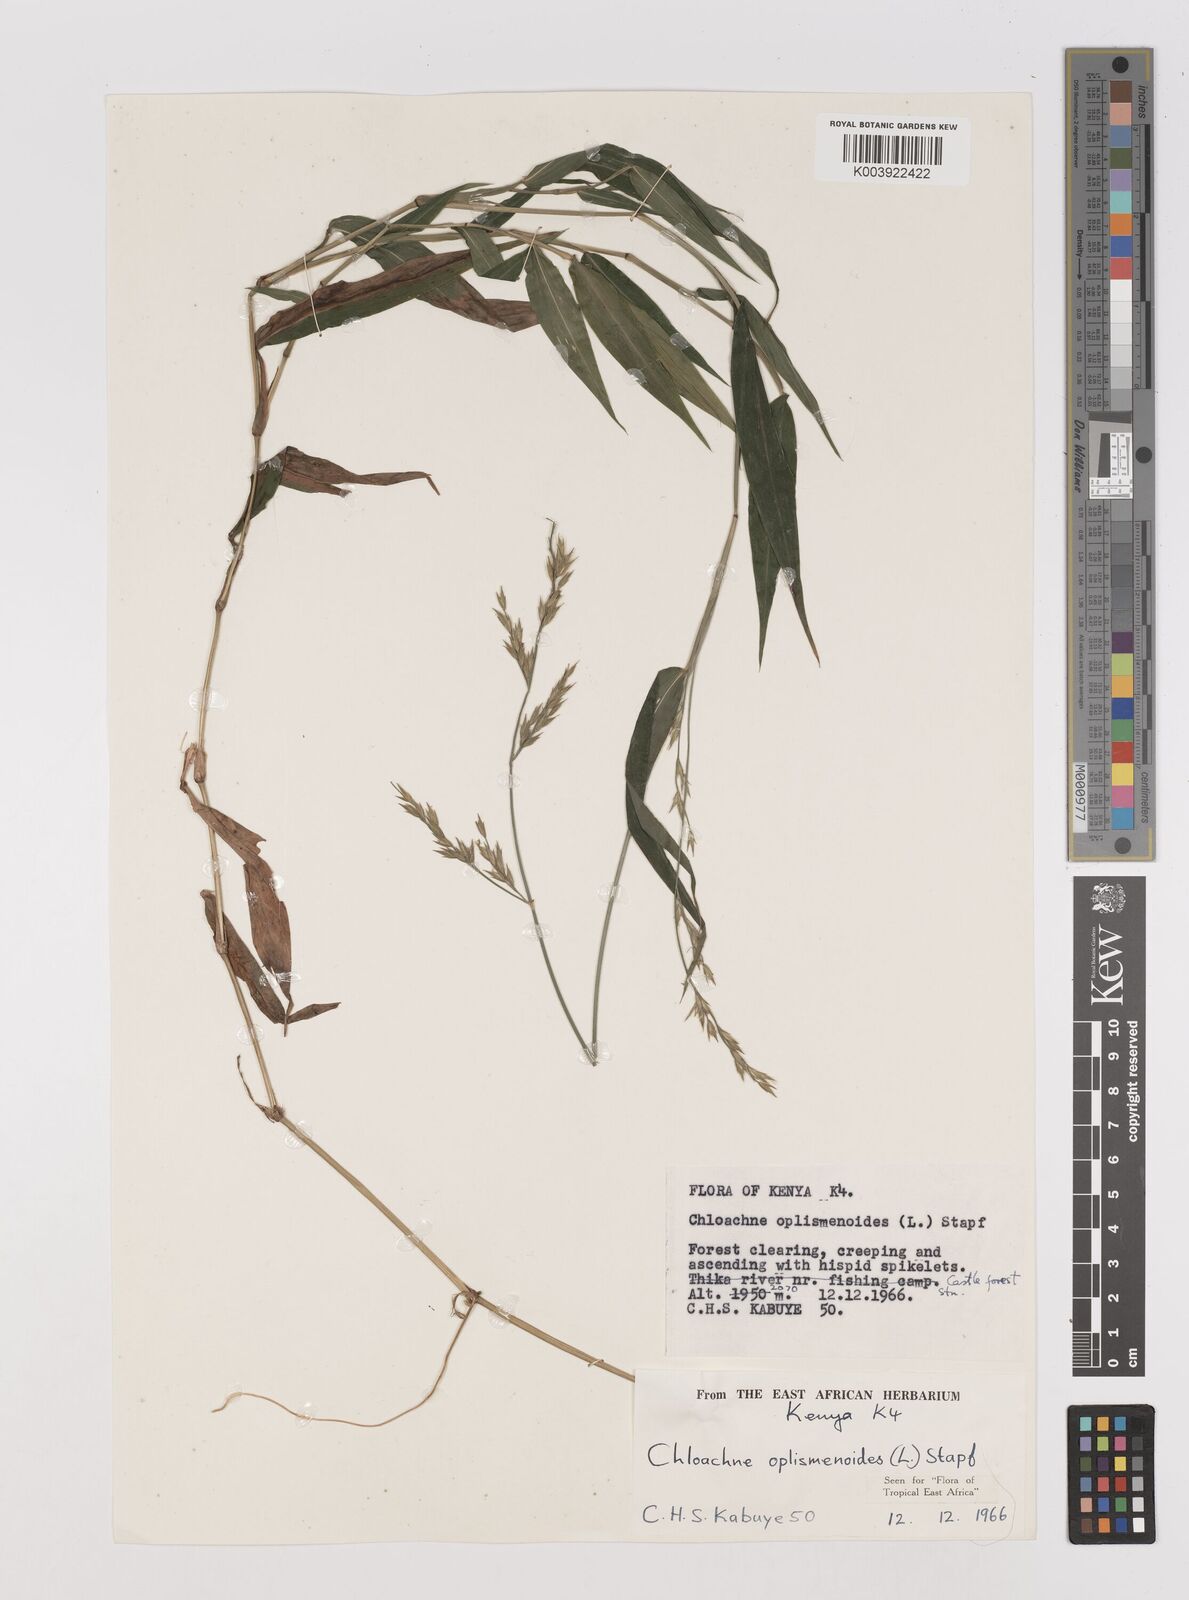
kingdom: Plantae
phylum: Tracheophyta
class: Liliopsida
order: Poales
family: Poaceae
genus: Poecilostachys
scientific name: Poecilostachys oplismenoides
